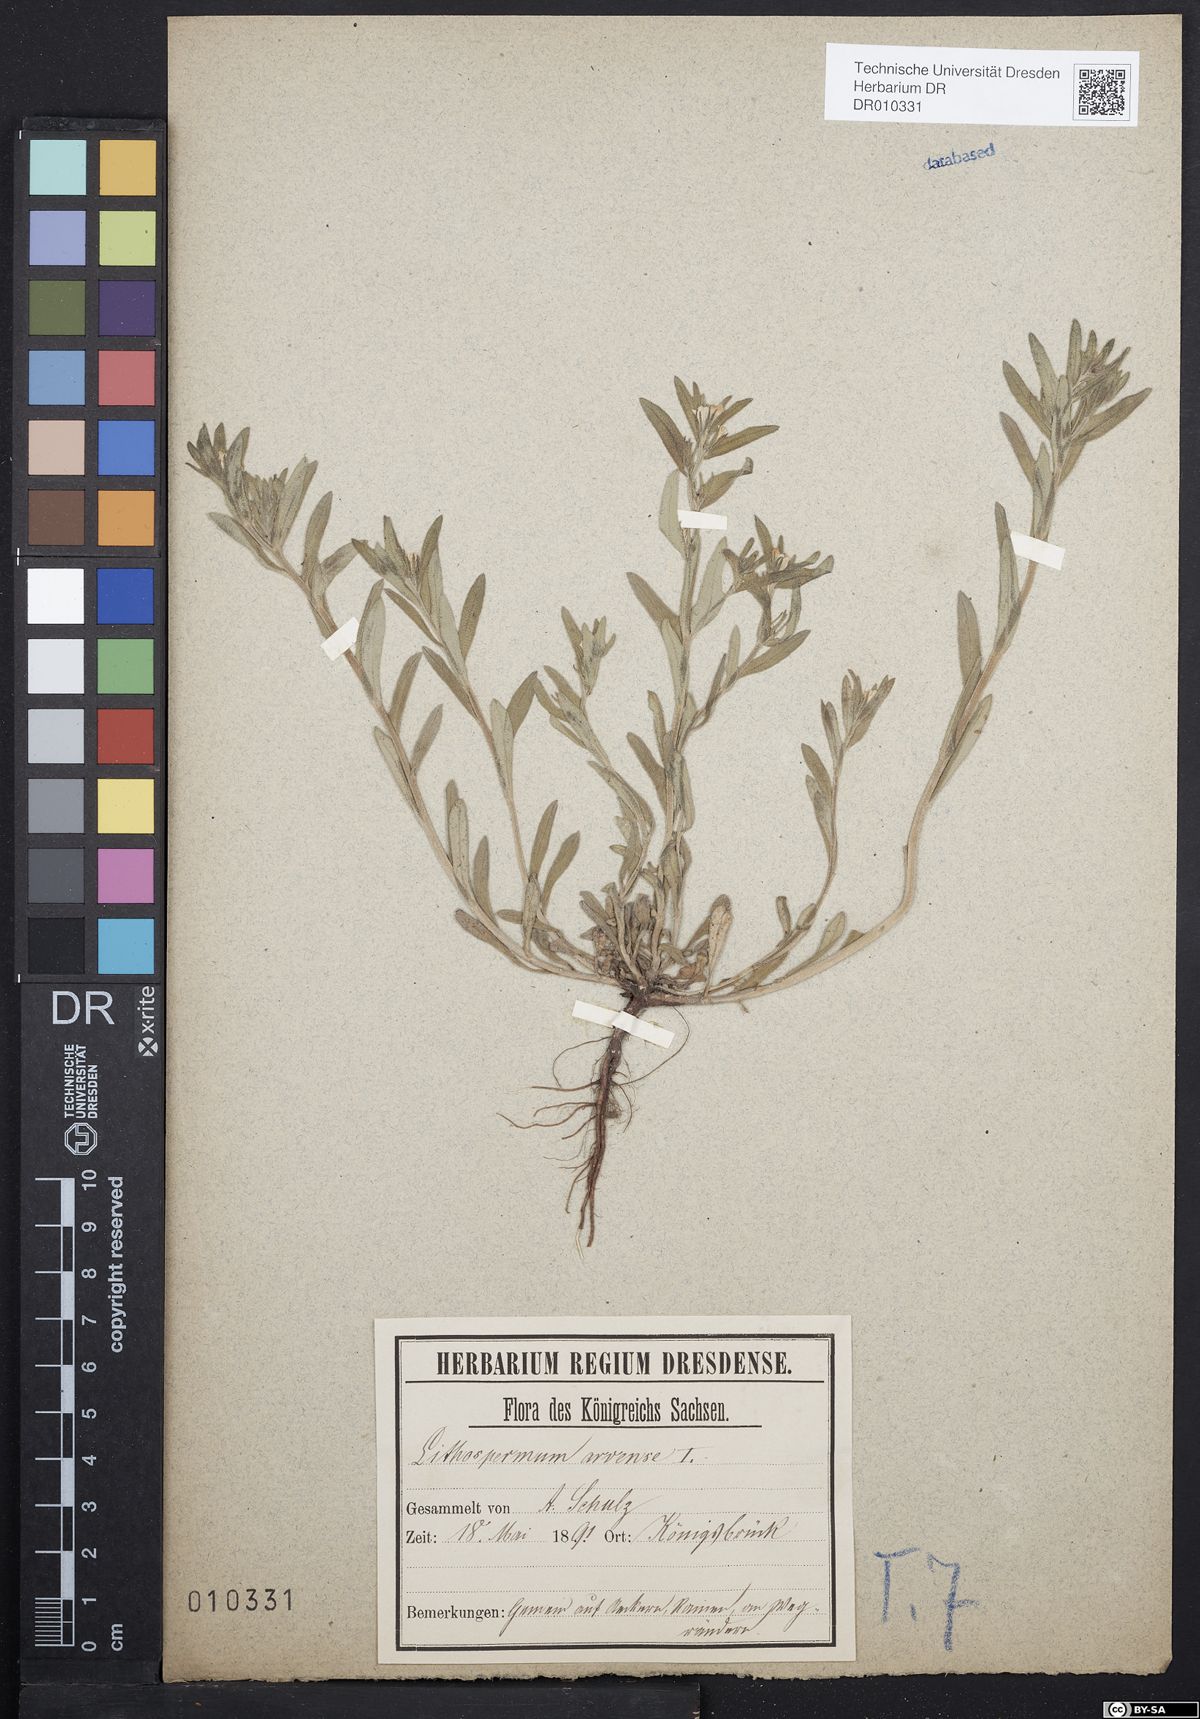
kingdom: Plantae
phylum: Tracheophyta
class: Magnoliopsida
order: Boraginales
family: Boraginaceae
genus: Buglossoides
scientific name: Buglossoides arvensis
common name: Corn gromwell
